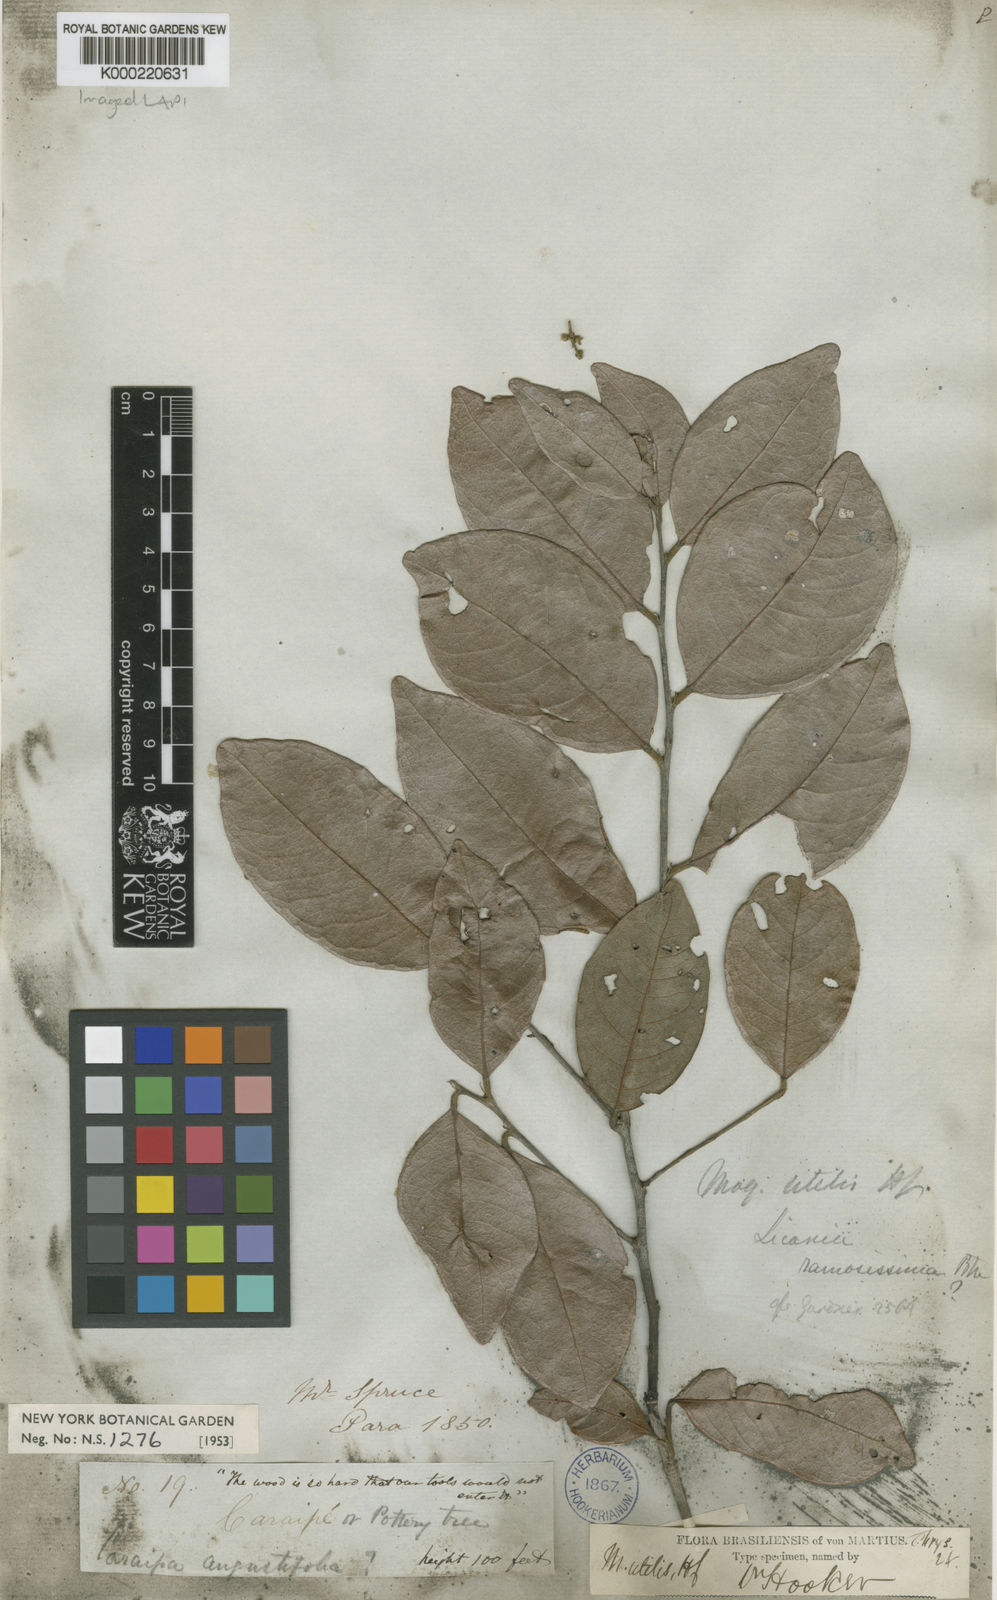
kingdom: Plantae
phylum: Tracheophyta
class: Magnoliopsida
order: Malpighiales
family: Chrysobalanaceae
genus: Leptobalanus
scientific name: Leptobalanus octandrus
